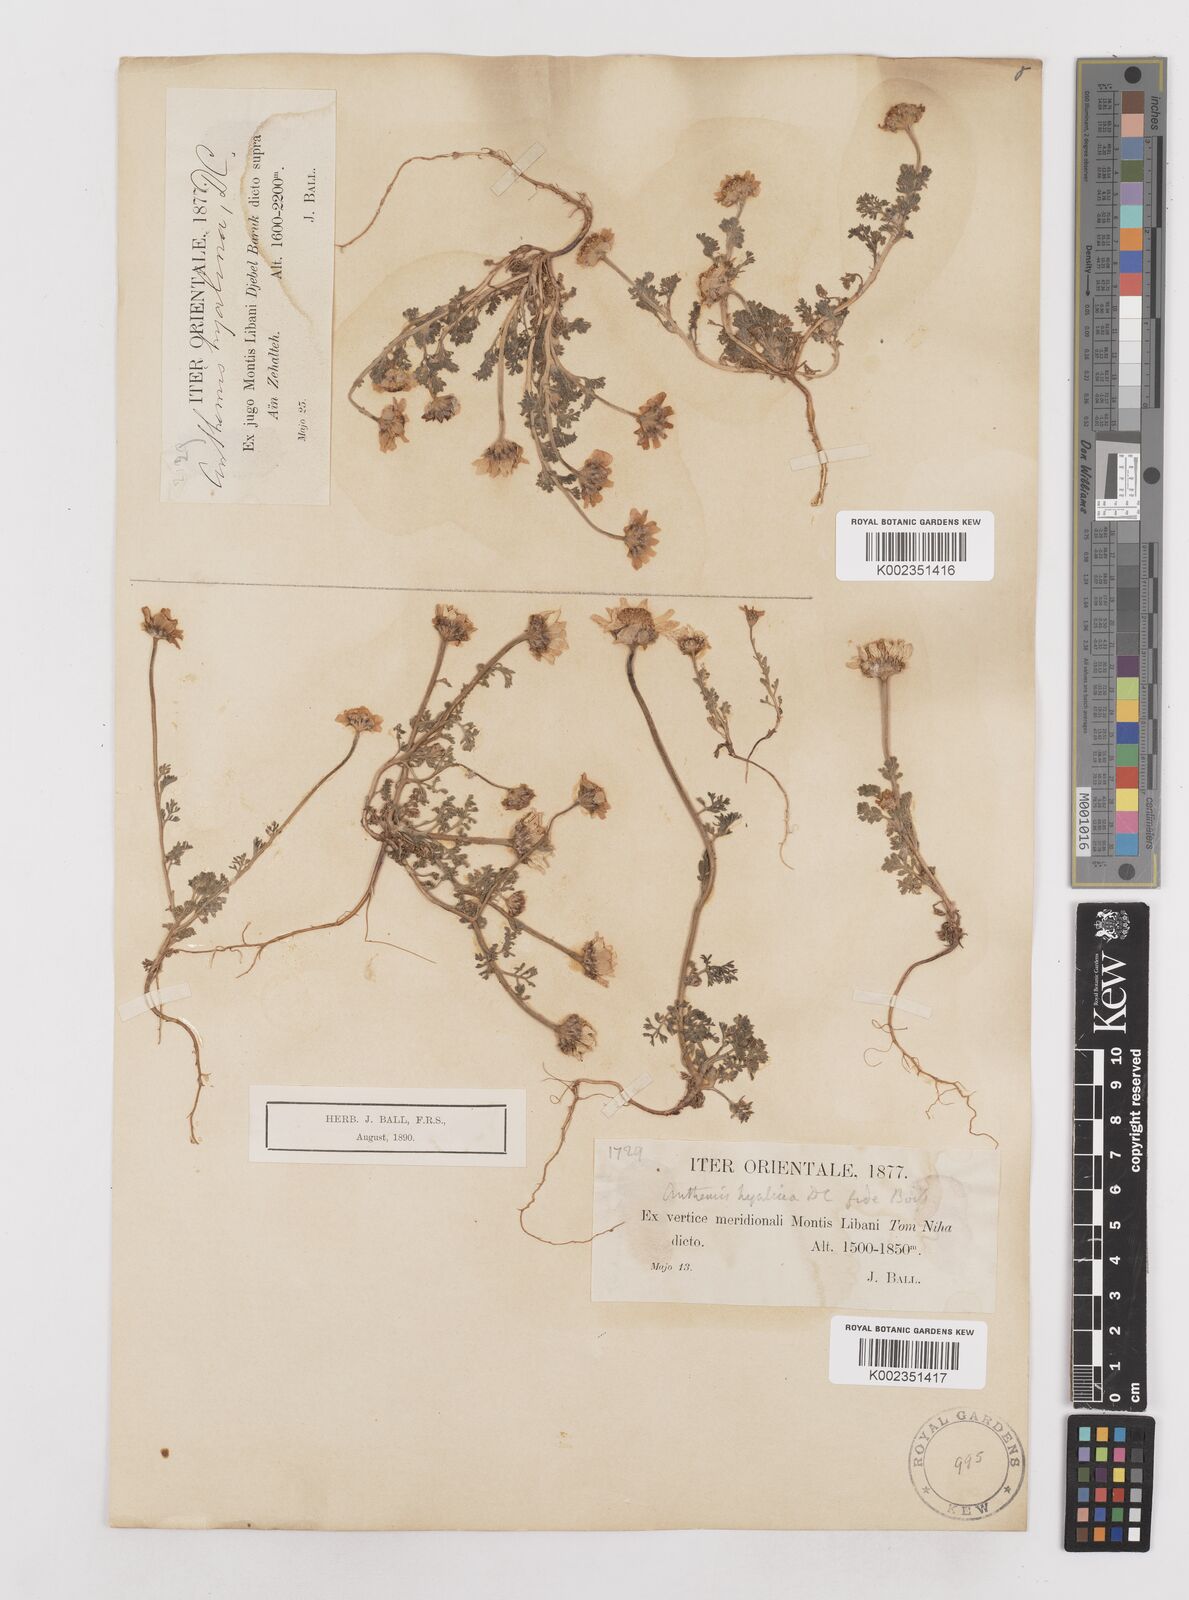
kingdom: Plantae
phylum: Tracheophyta
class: Magnoliopsida
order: Asterales
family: Asteraceae
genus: Anthemis
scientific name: Anthemis hyalina
